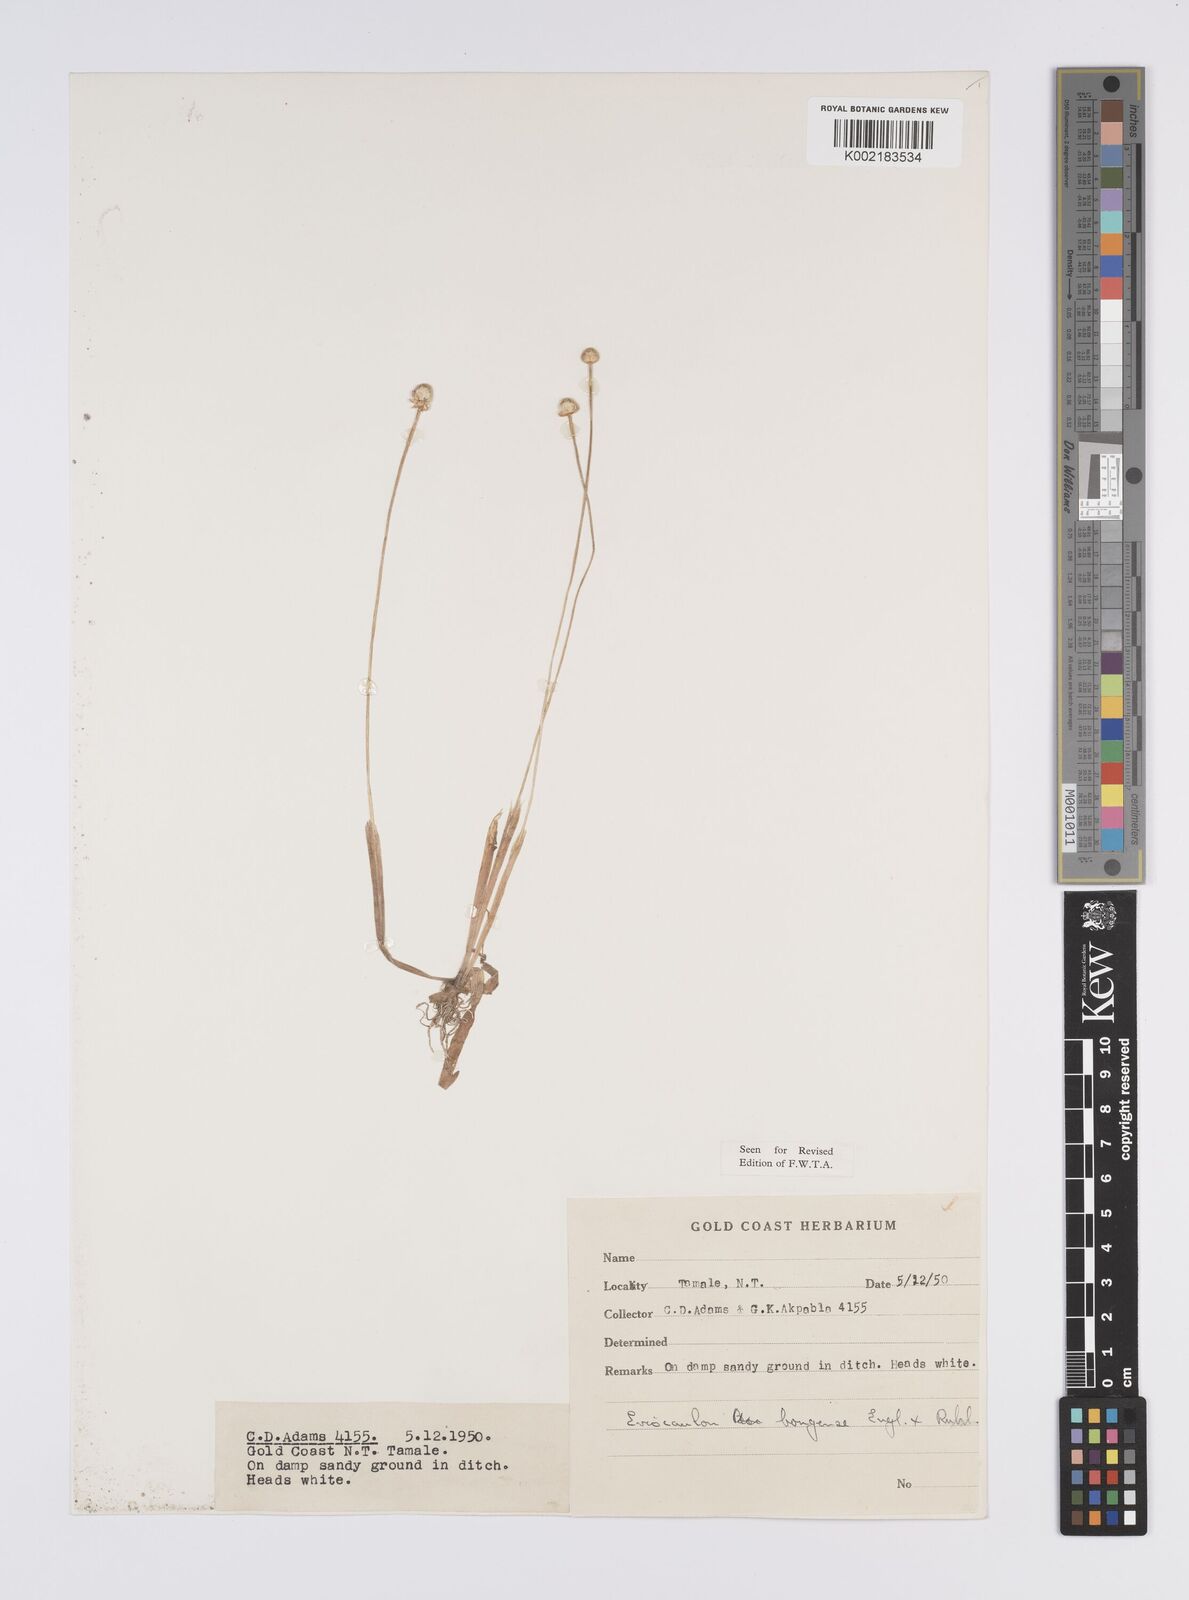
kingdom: Plantae
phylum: Tracheophyta
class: Liliopsida
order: Poales
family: Eriocaulaceae
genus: Eriocaulon
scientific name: Eriocaulon bongense
